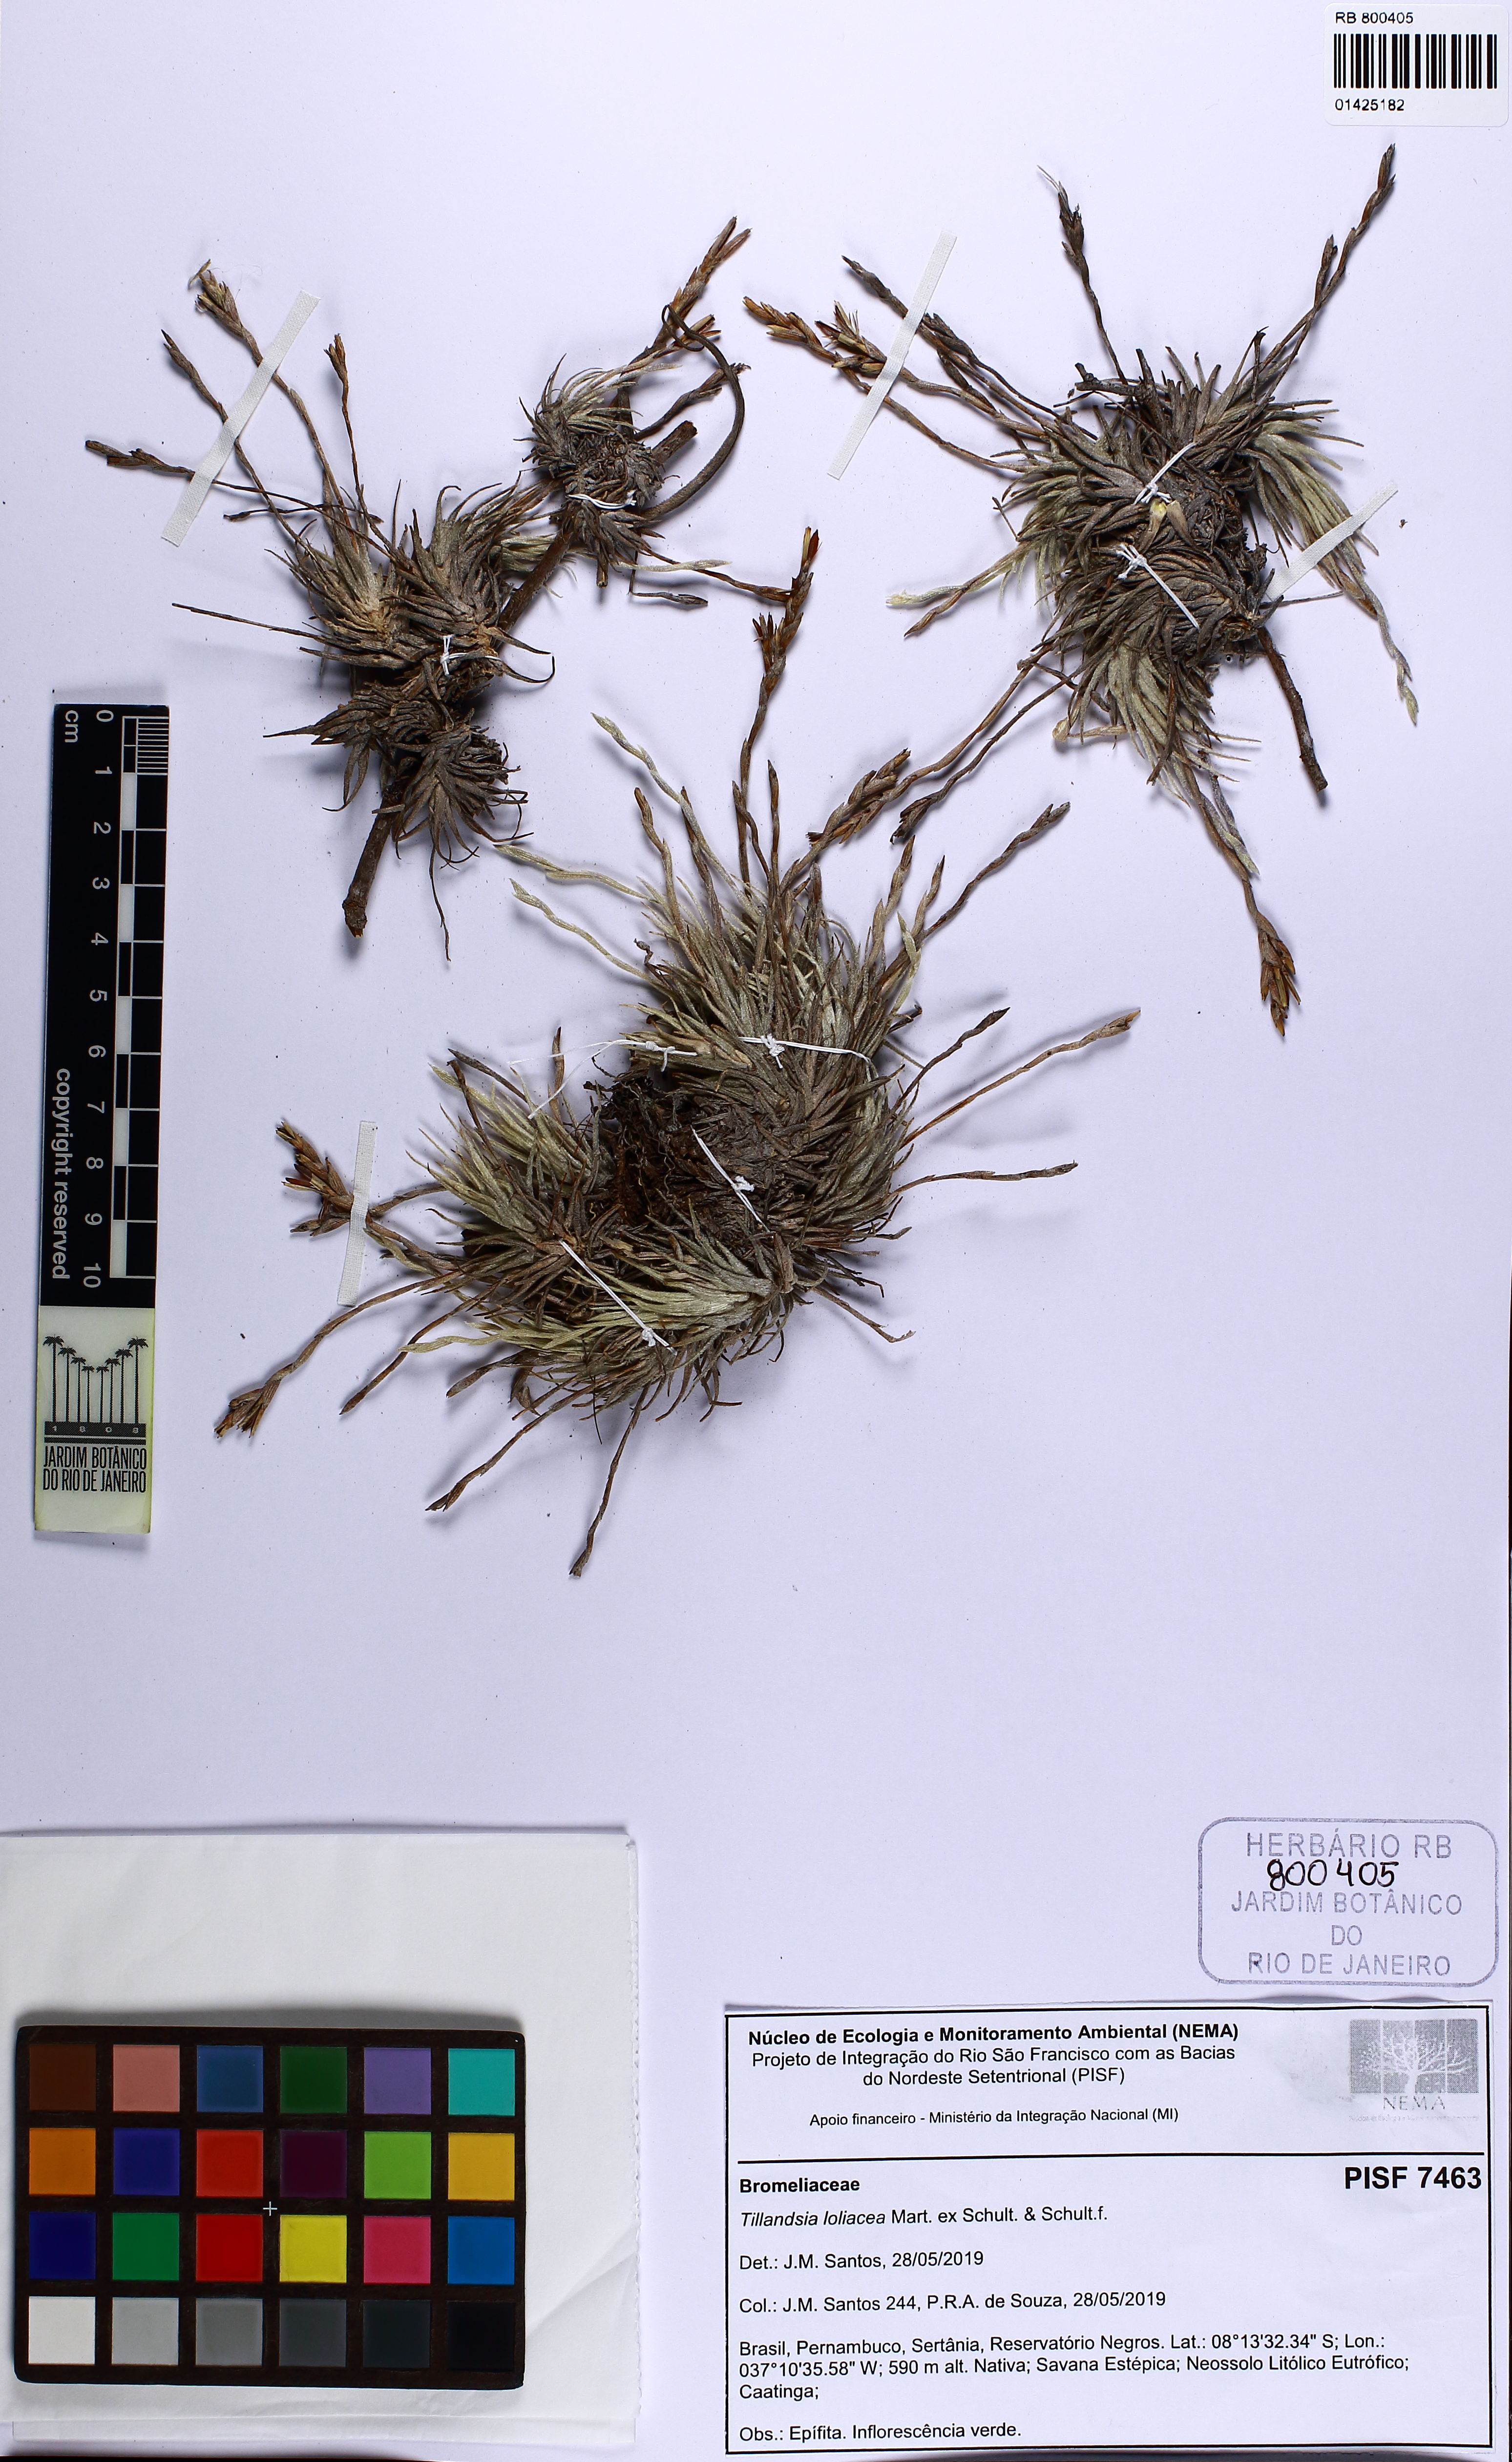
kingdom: Plantae
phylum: Tracheophyta
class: Liliopsida
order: Poales
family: Bromeliaceae
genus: Tillandsia
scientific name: Tillandsia loliacea
